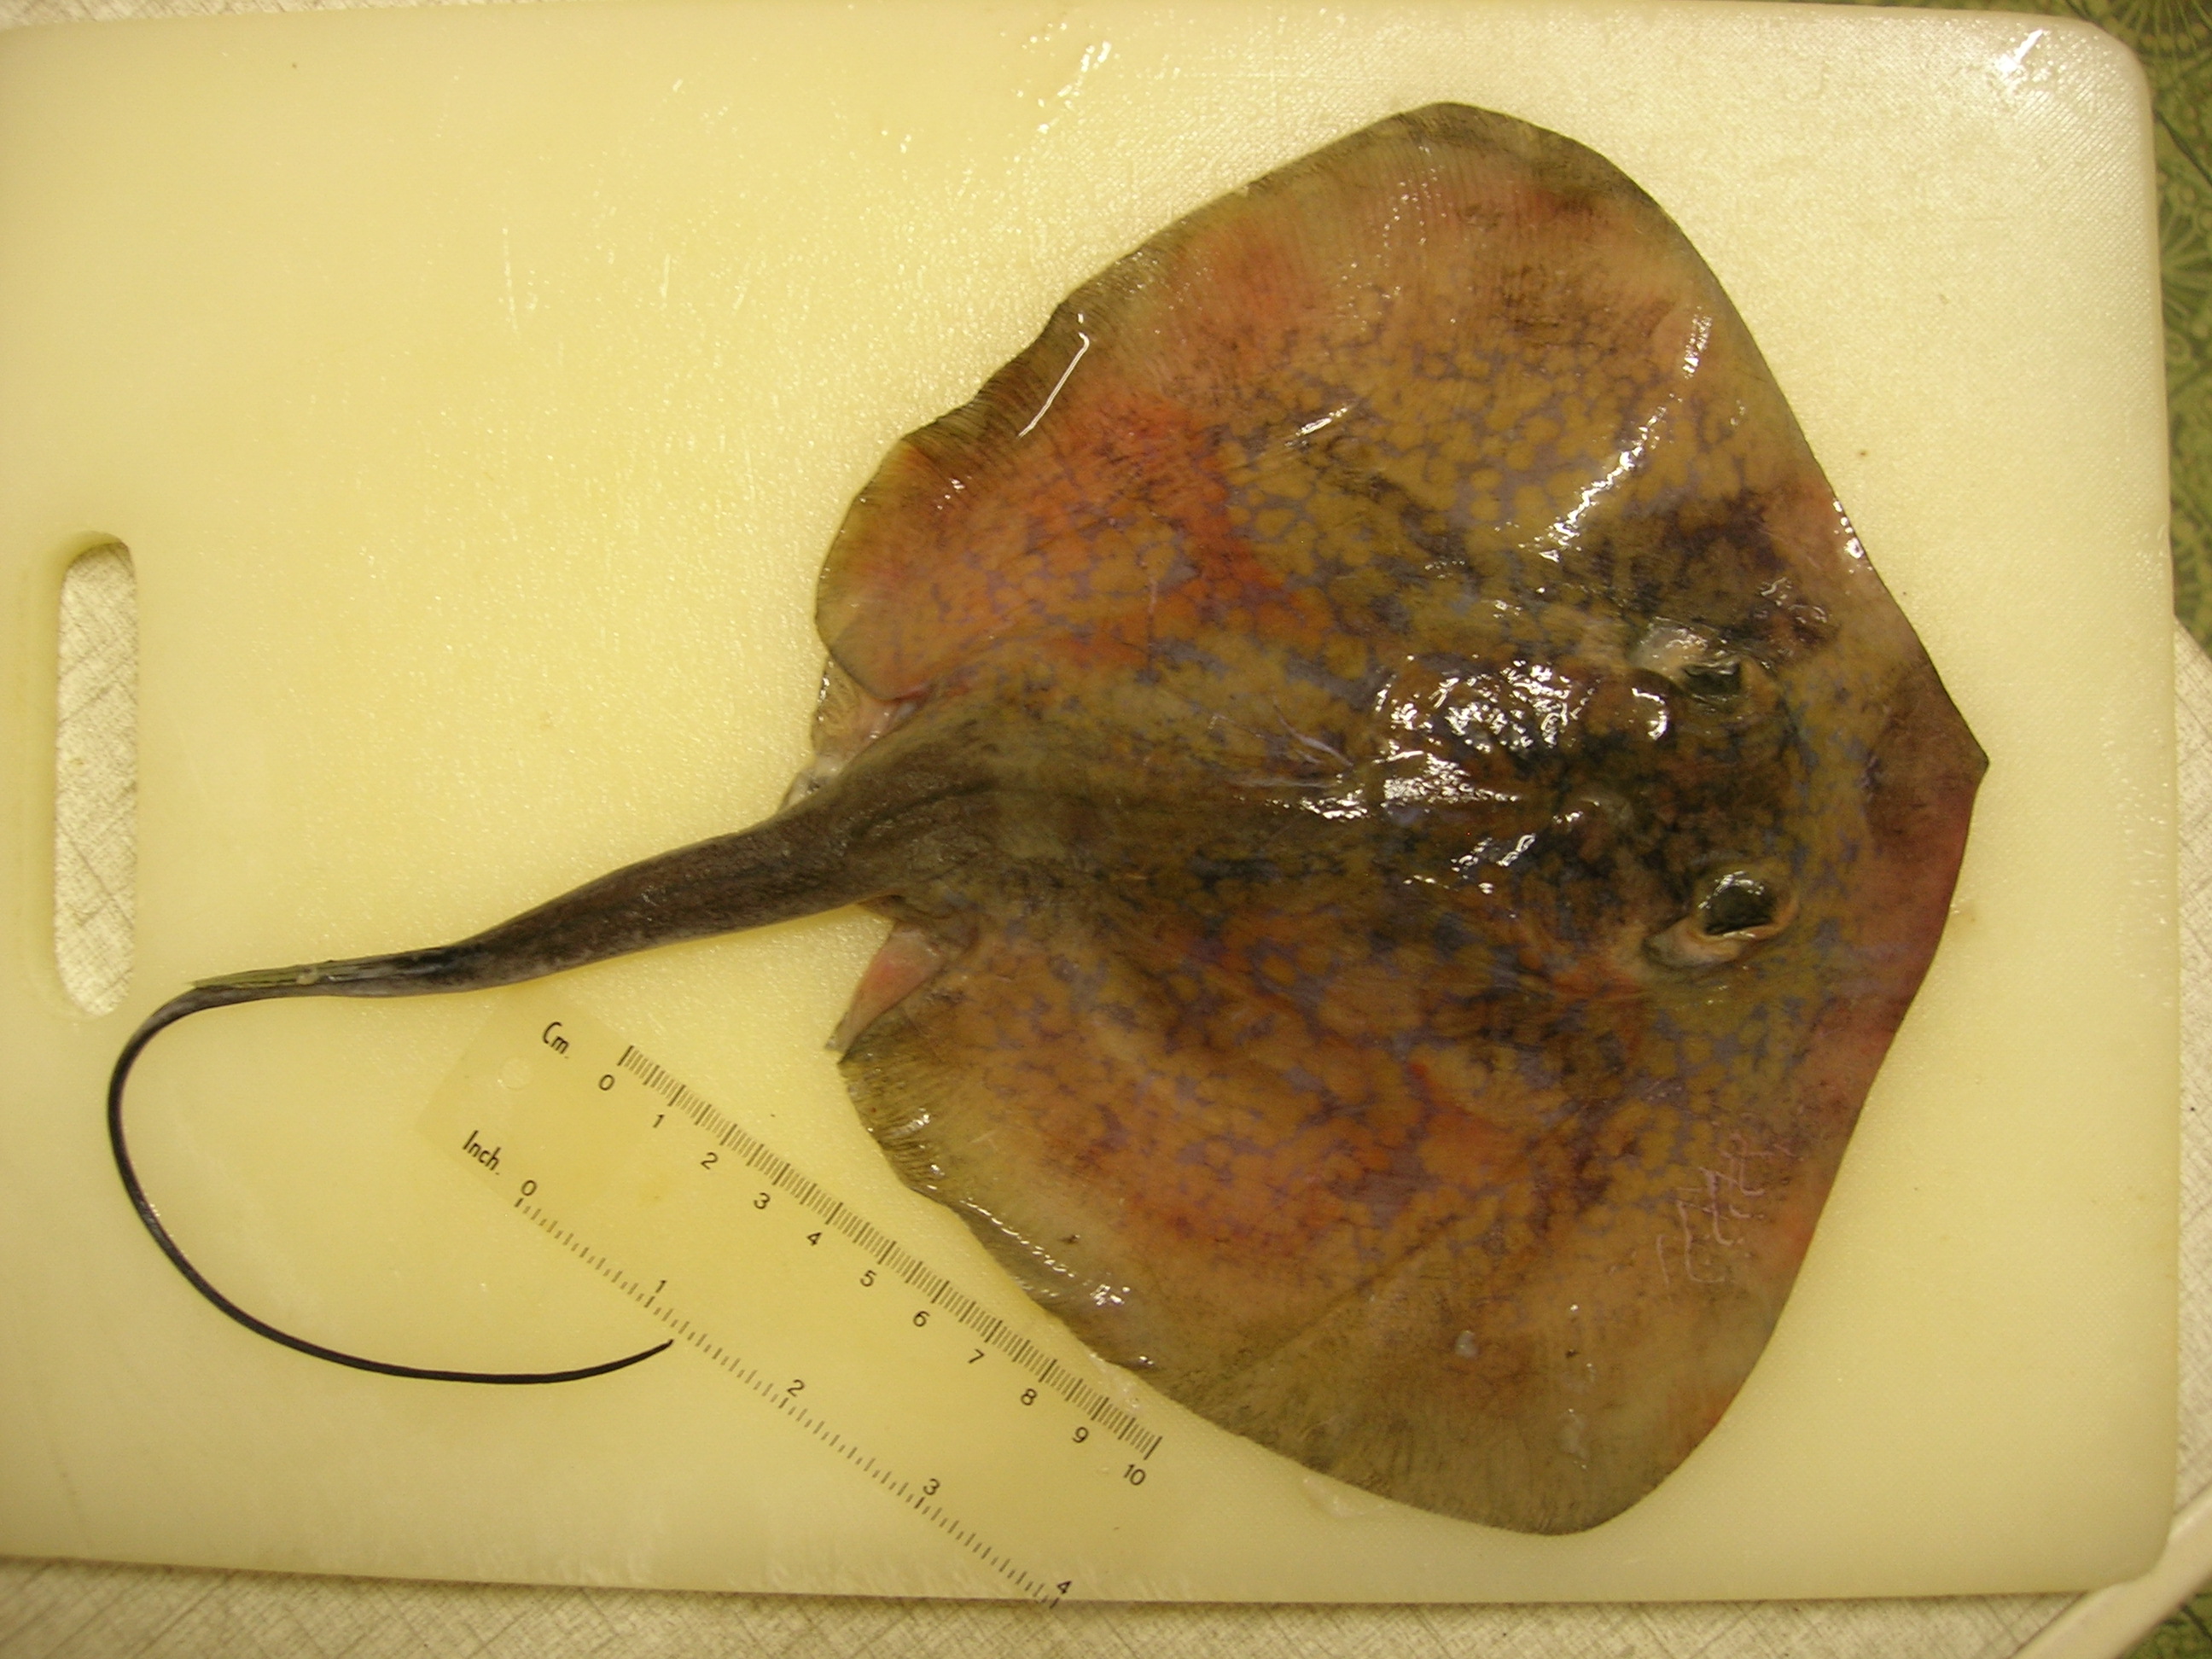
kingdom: Animalia
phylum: Chordata
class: Elasmobranchii
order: Myliobatiformes
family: Dasyatidae
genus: Dasyatis
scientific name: Dasyatis chrysonota
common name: Blue stingray
